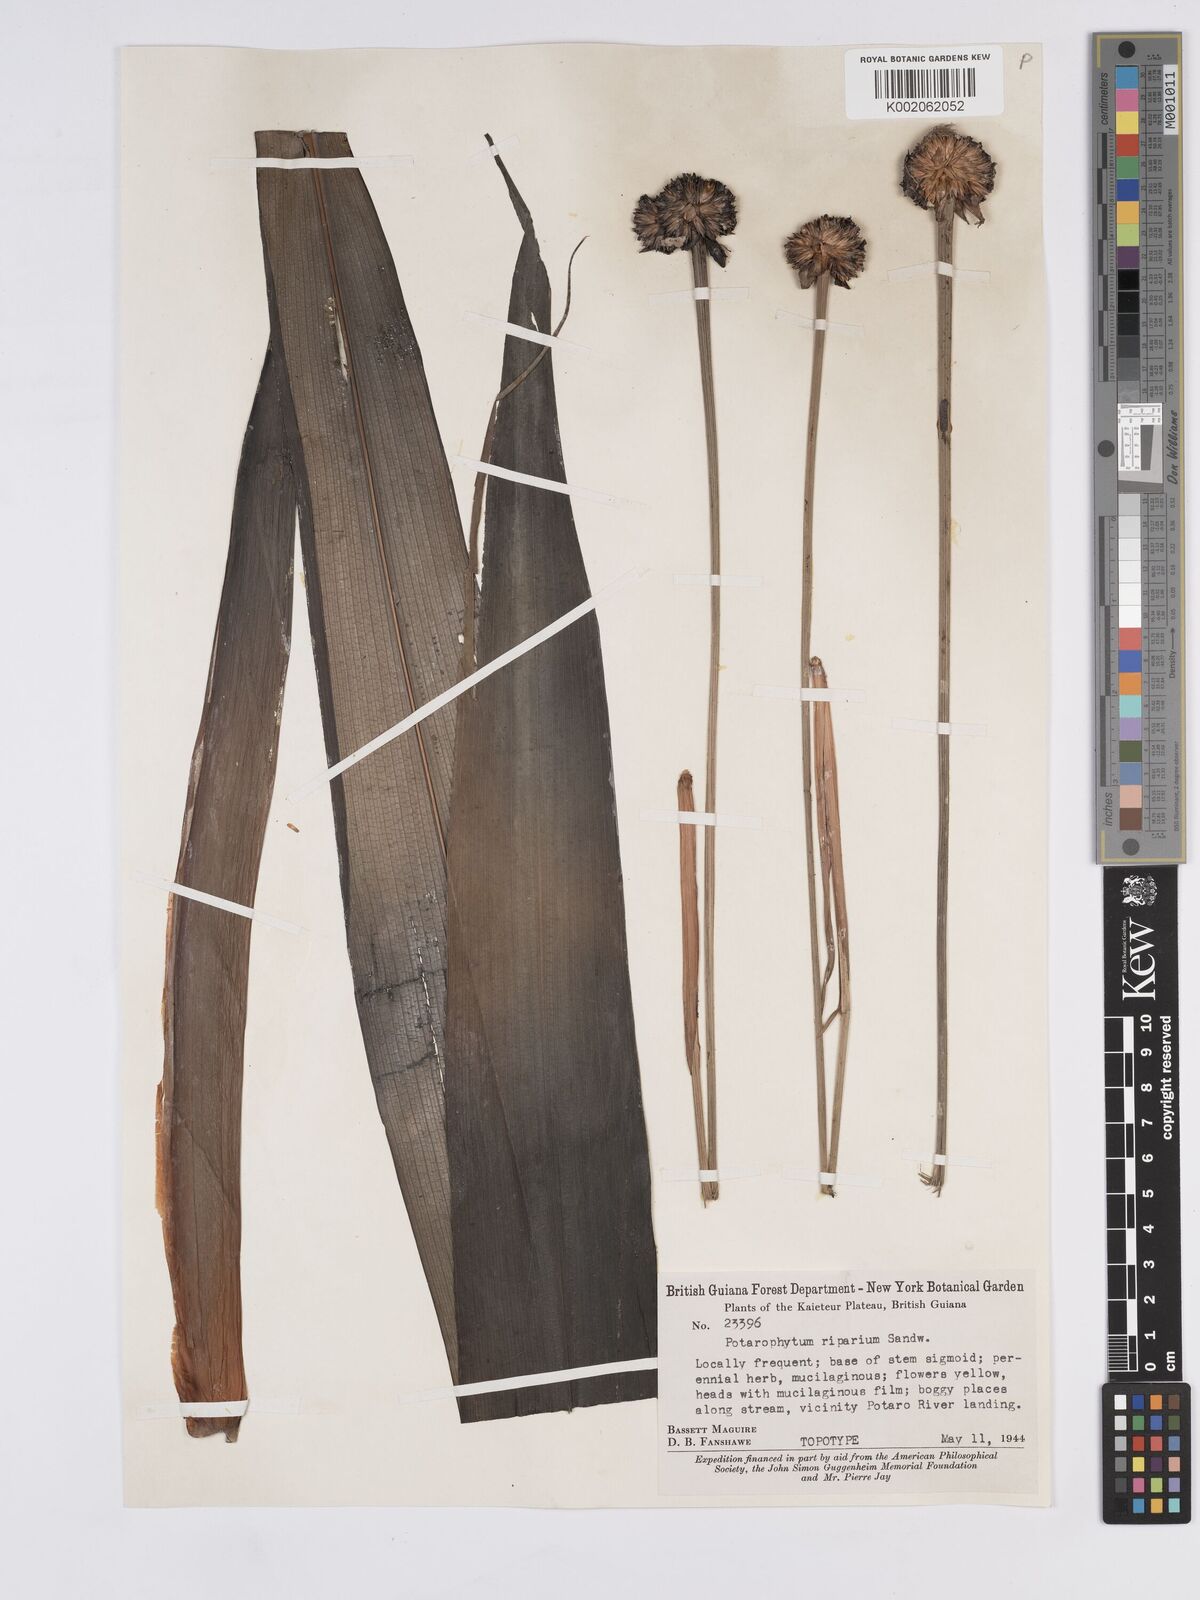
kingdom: Plantae
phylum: Tracheophyta
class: Liliopsida
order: Poales
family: Rapateaceae
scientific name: Rapateaceae
